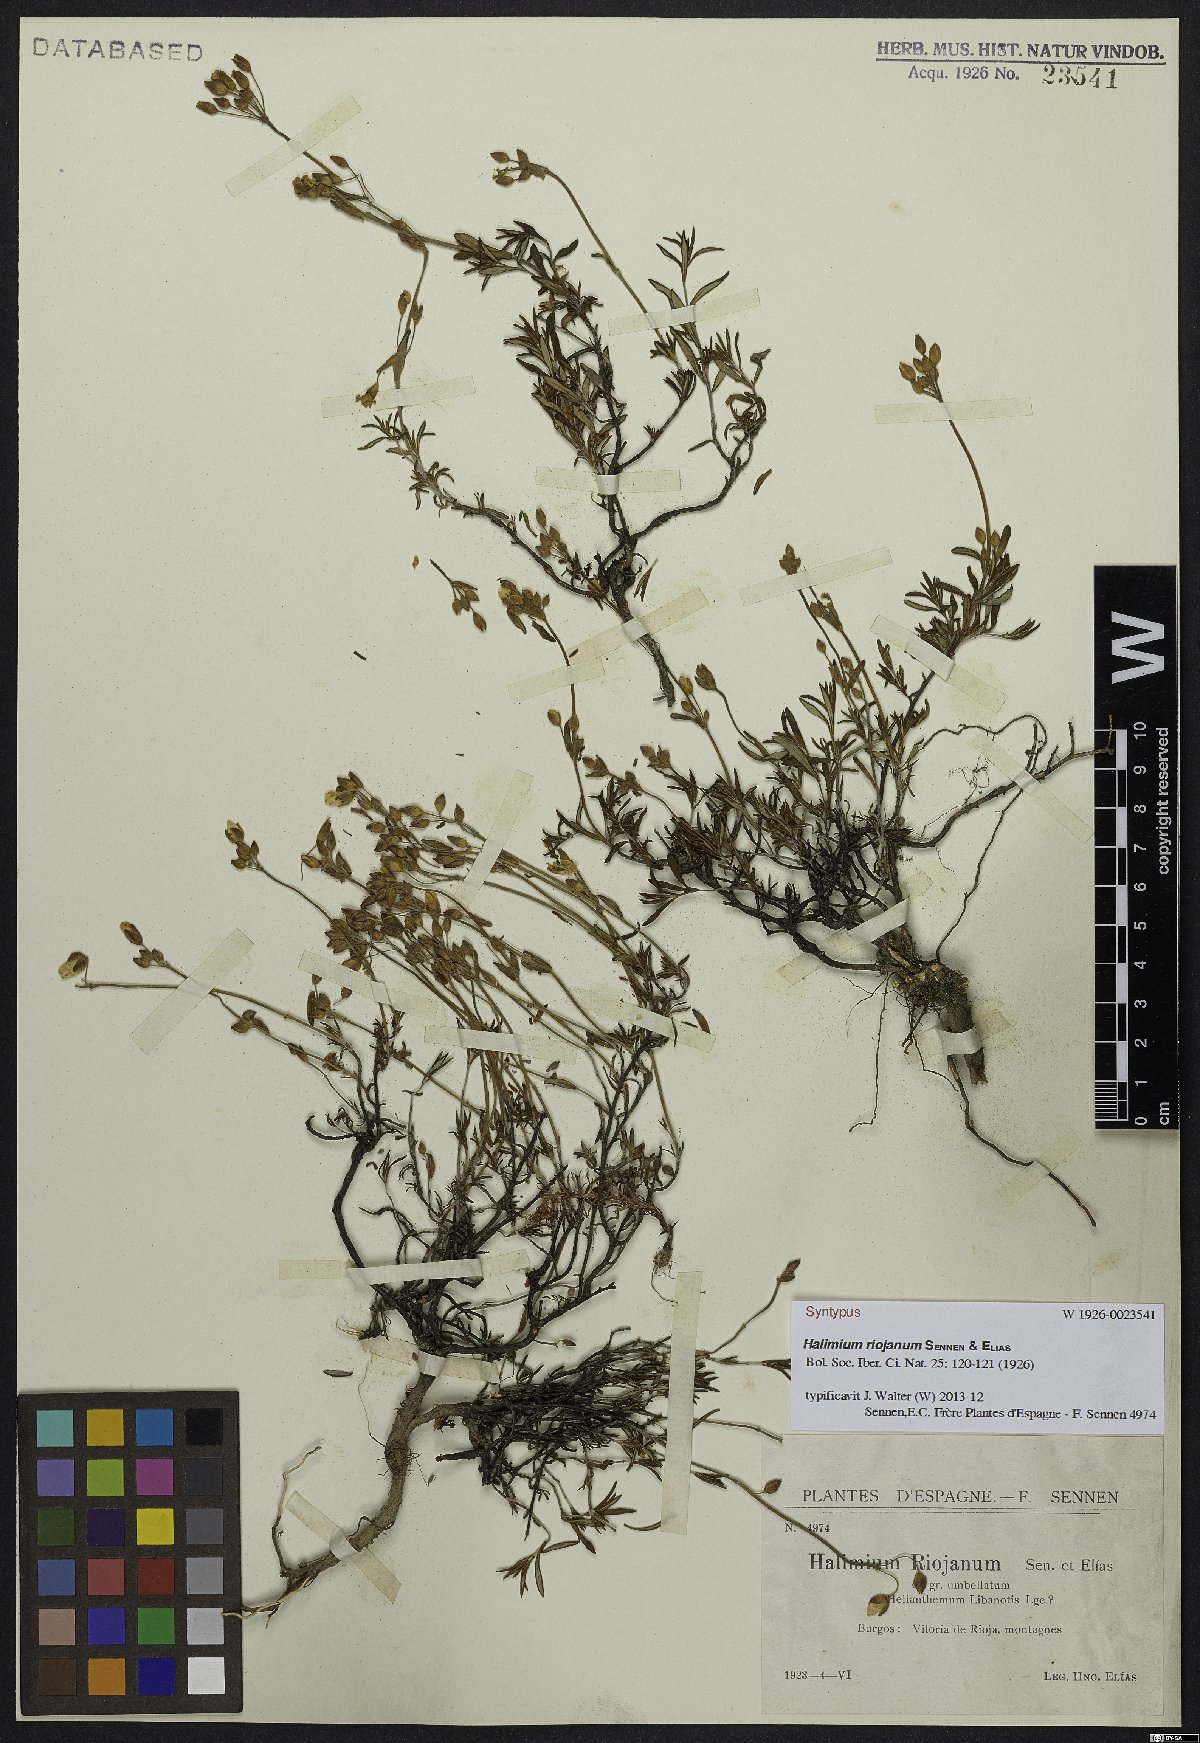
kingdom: Plantae
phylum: Tracheophyta
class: Magnoliopsida
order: Malvales
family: Cistaceae
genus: Cistus
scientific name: Cistus Halimium riojanum
